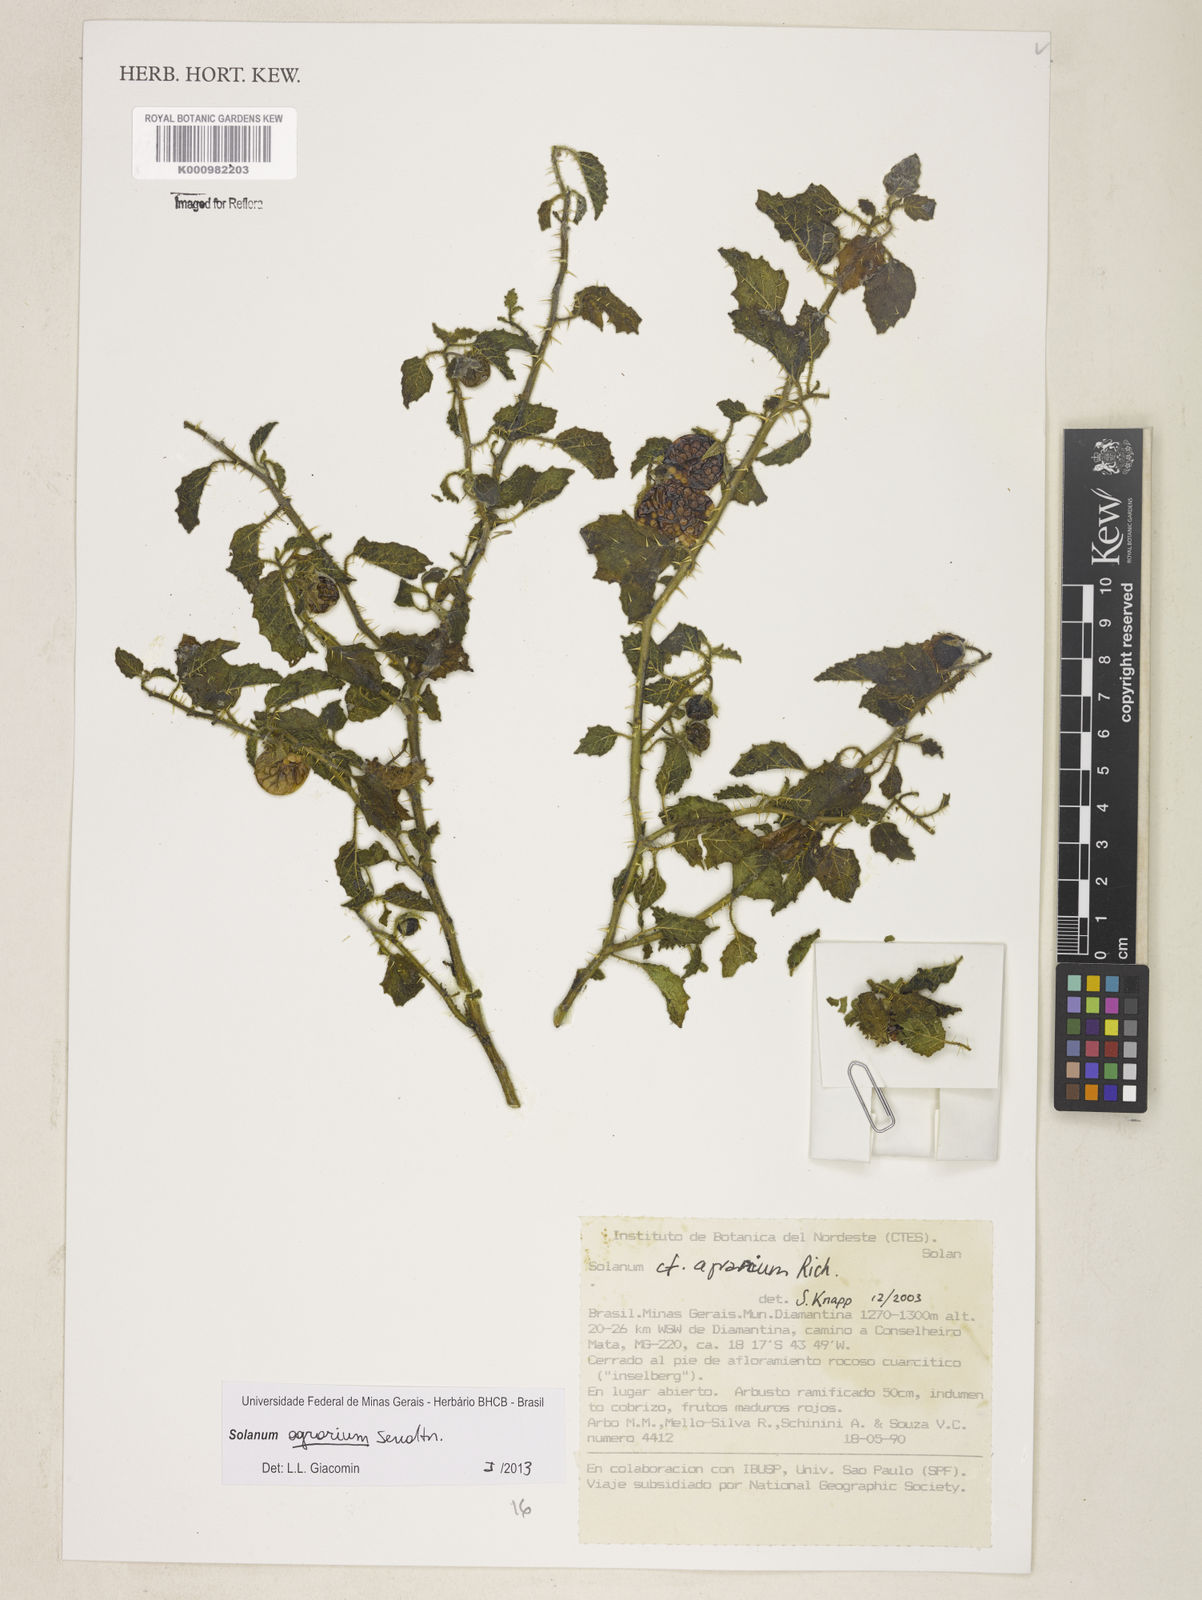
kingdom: Plantae
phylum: Tracheophyta
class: Magnoliopsida
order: Solanales
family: Solanaceae
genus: Solanum
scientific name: Solanum agrarium
